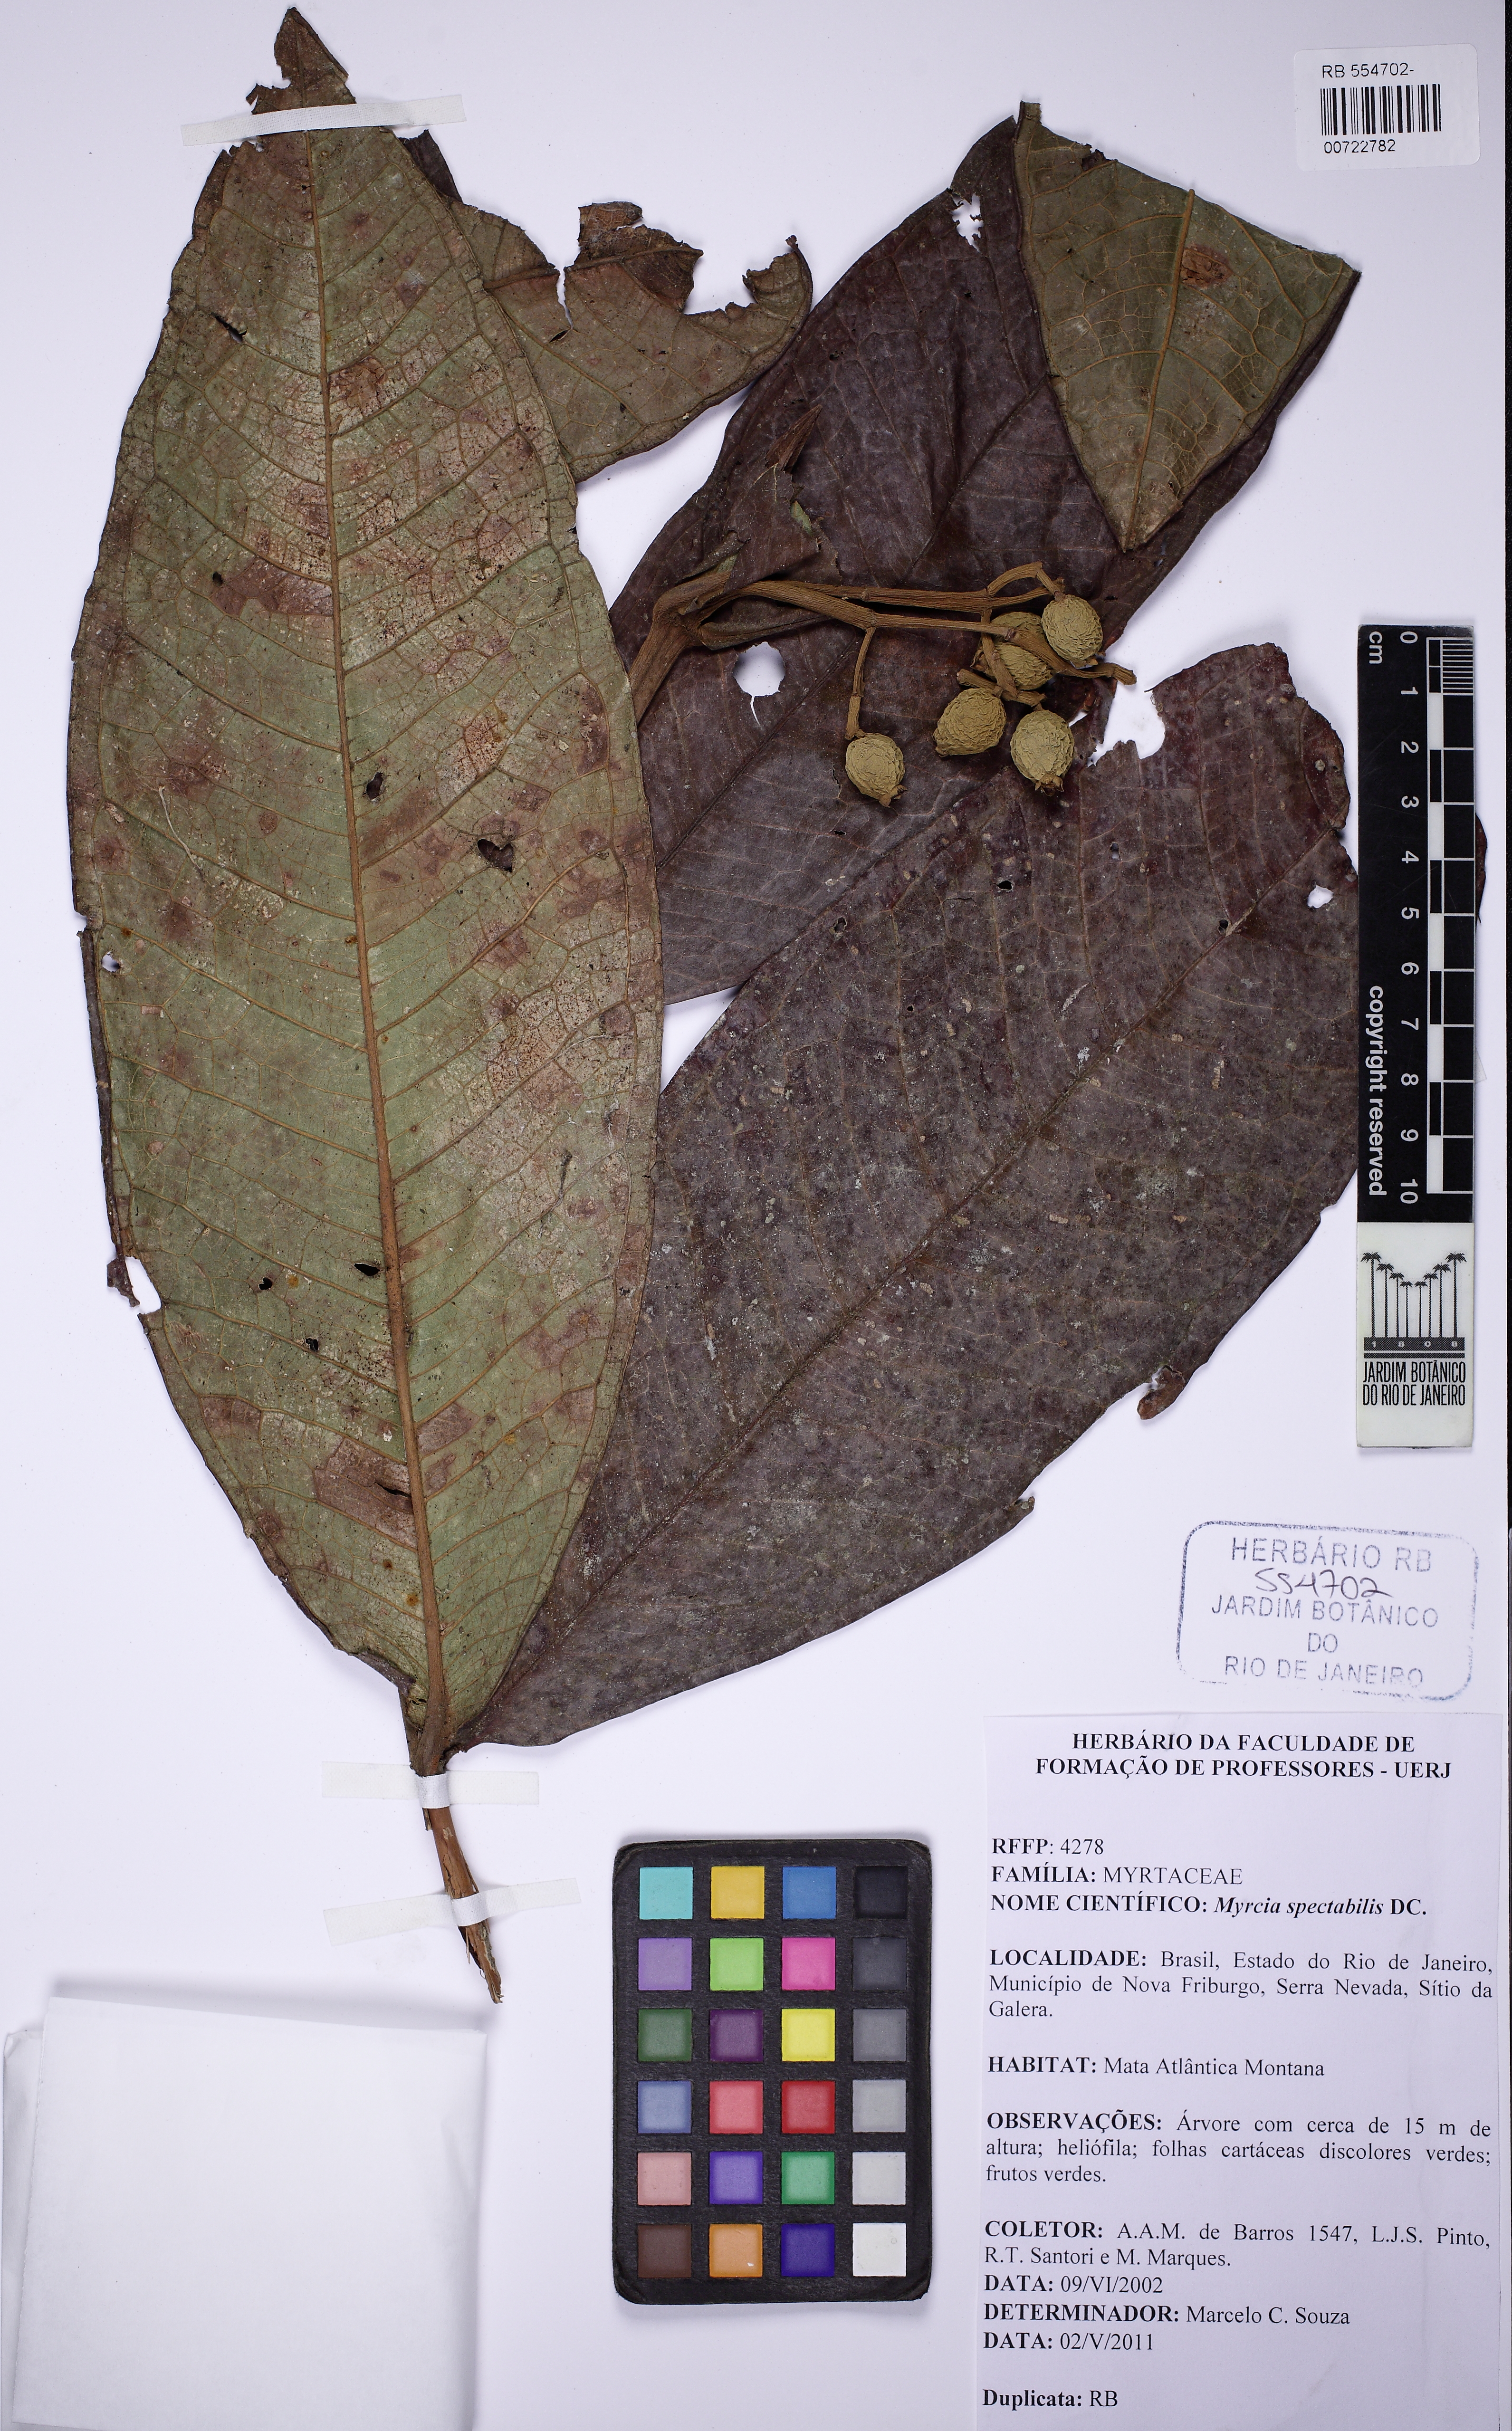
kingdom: Plantae
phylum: Tracheophyta
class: Magnoliopsida
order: Myrtales
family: Myrtaceae
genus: Myrcia
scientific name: Myrcia spectabilis
